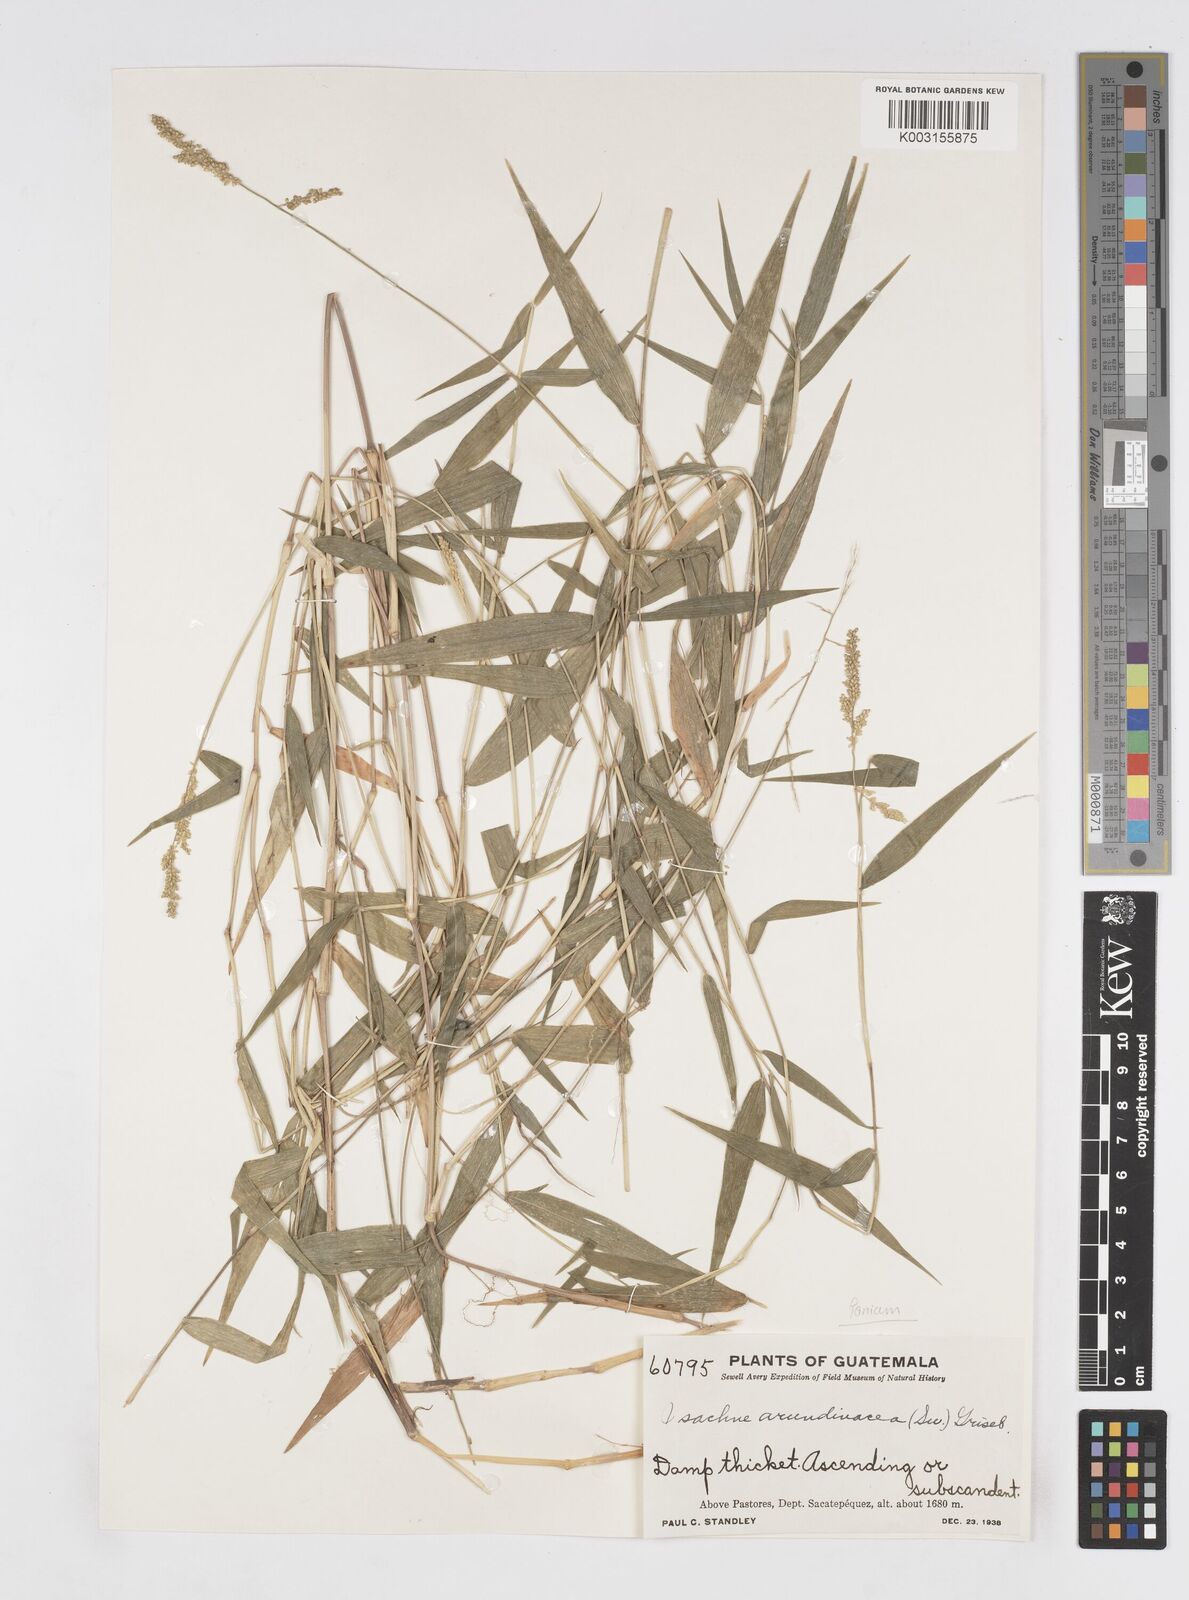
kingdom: Plantae
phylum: Tracheophyta
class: Liliopsida
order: Poales
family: Poaceae
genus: Isachne
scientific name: Isachne arundinacea
